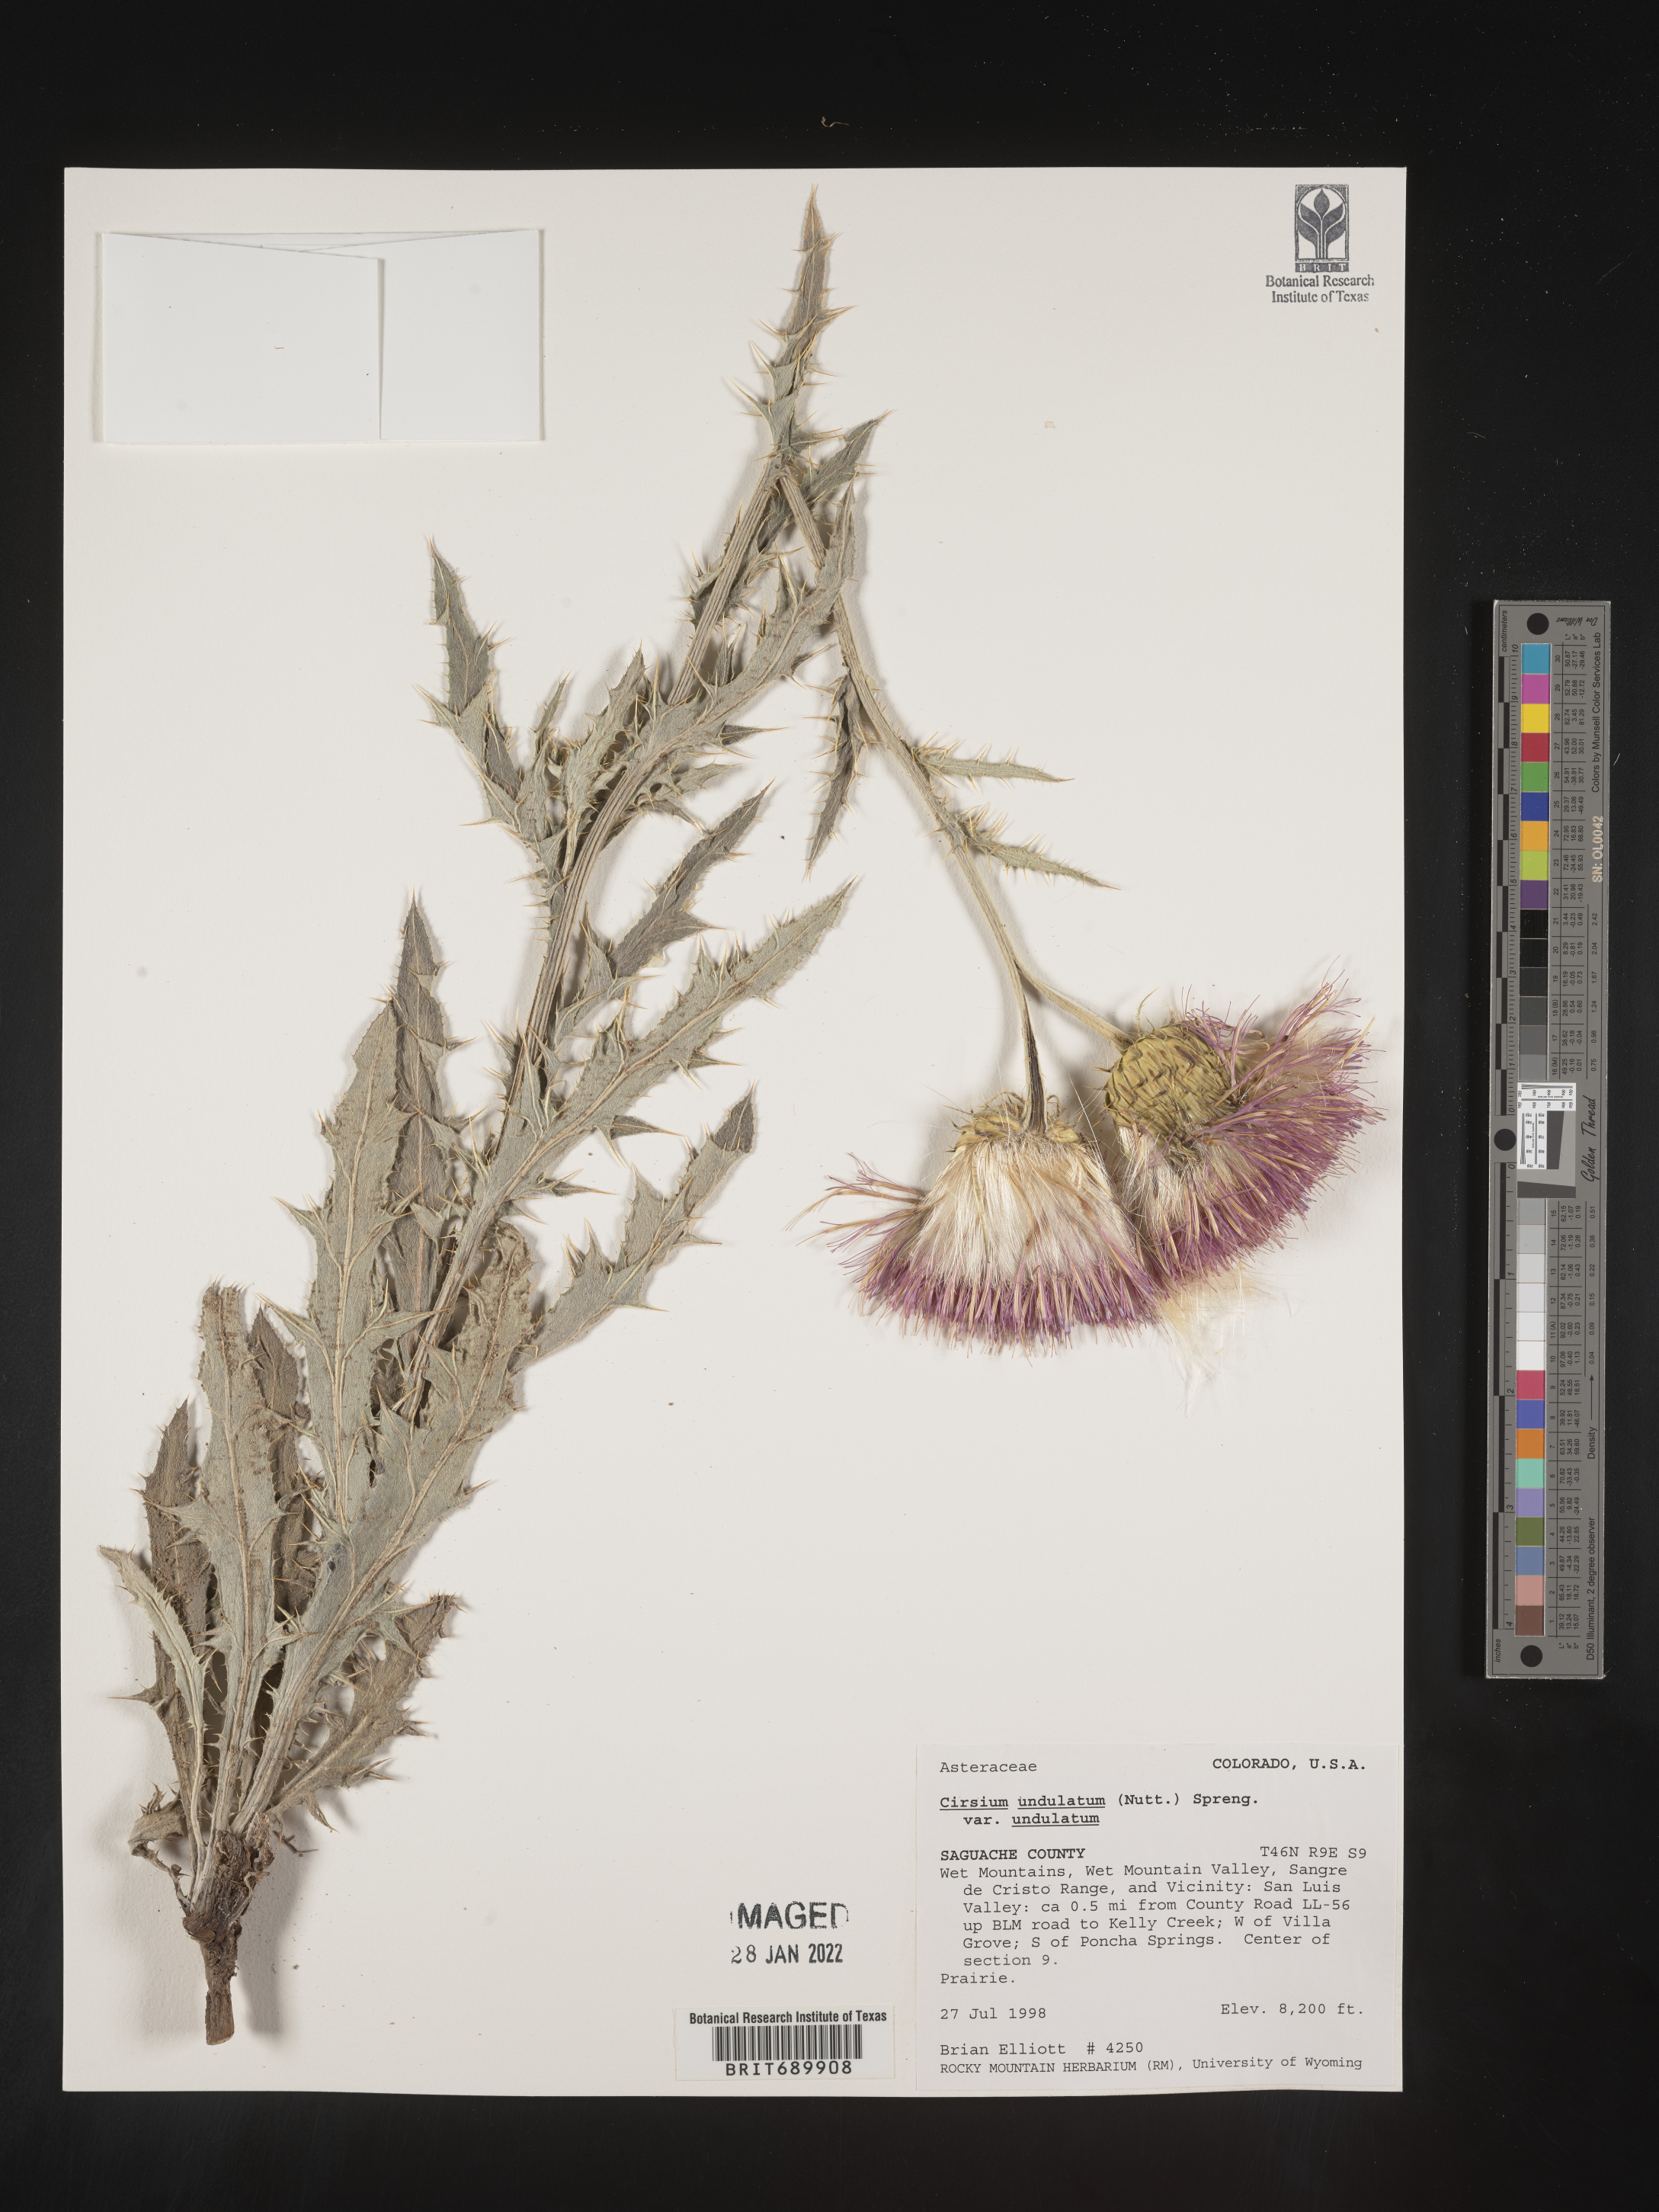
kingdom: Plantae
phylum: Tracheophyta
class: Magnoliopsida
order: Asterales
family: Asteraceae
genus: Cirsium
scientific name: Cirsium undulatum
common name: Pasture thistle
